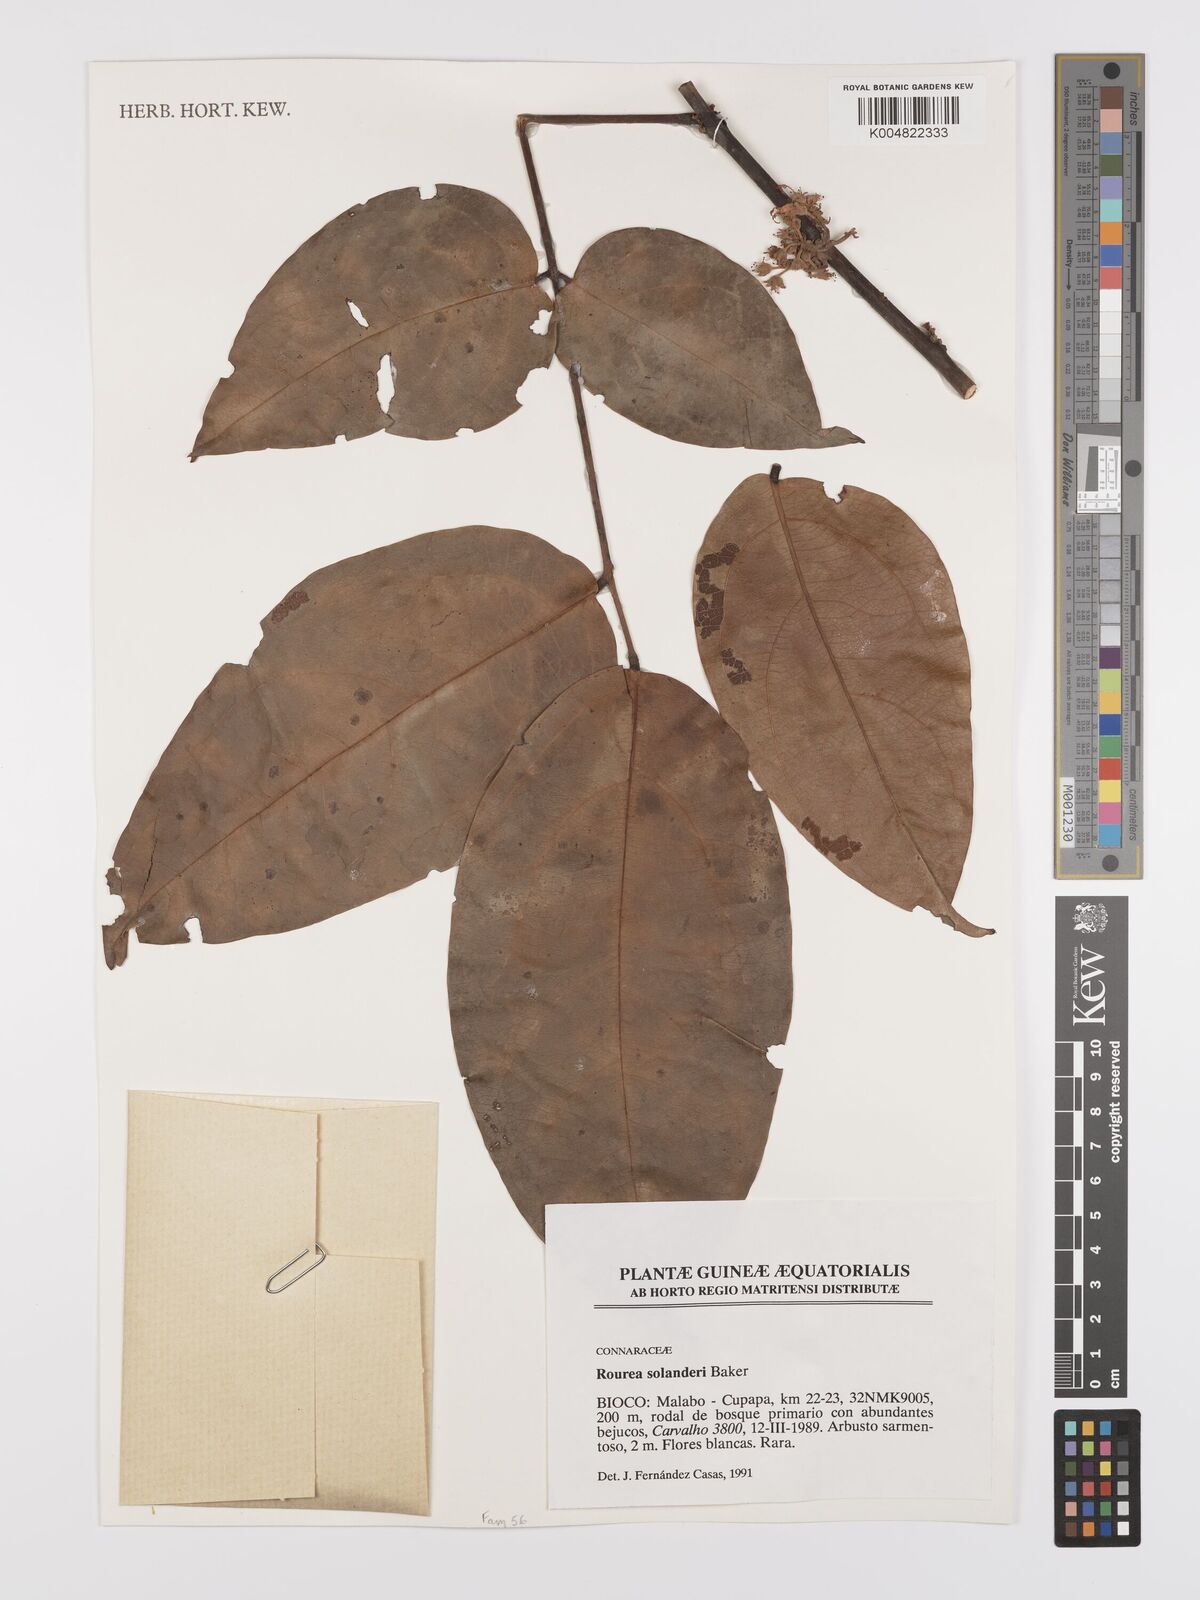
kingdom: Plantae
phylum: Tracheophyta
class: Magnoliopsida
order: Oxalidales
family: Connaraceae
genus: Rourea
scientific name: Rourea solanderi
